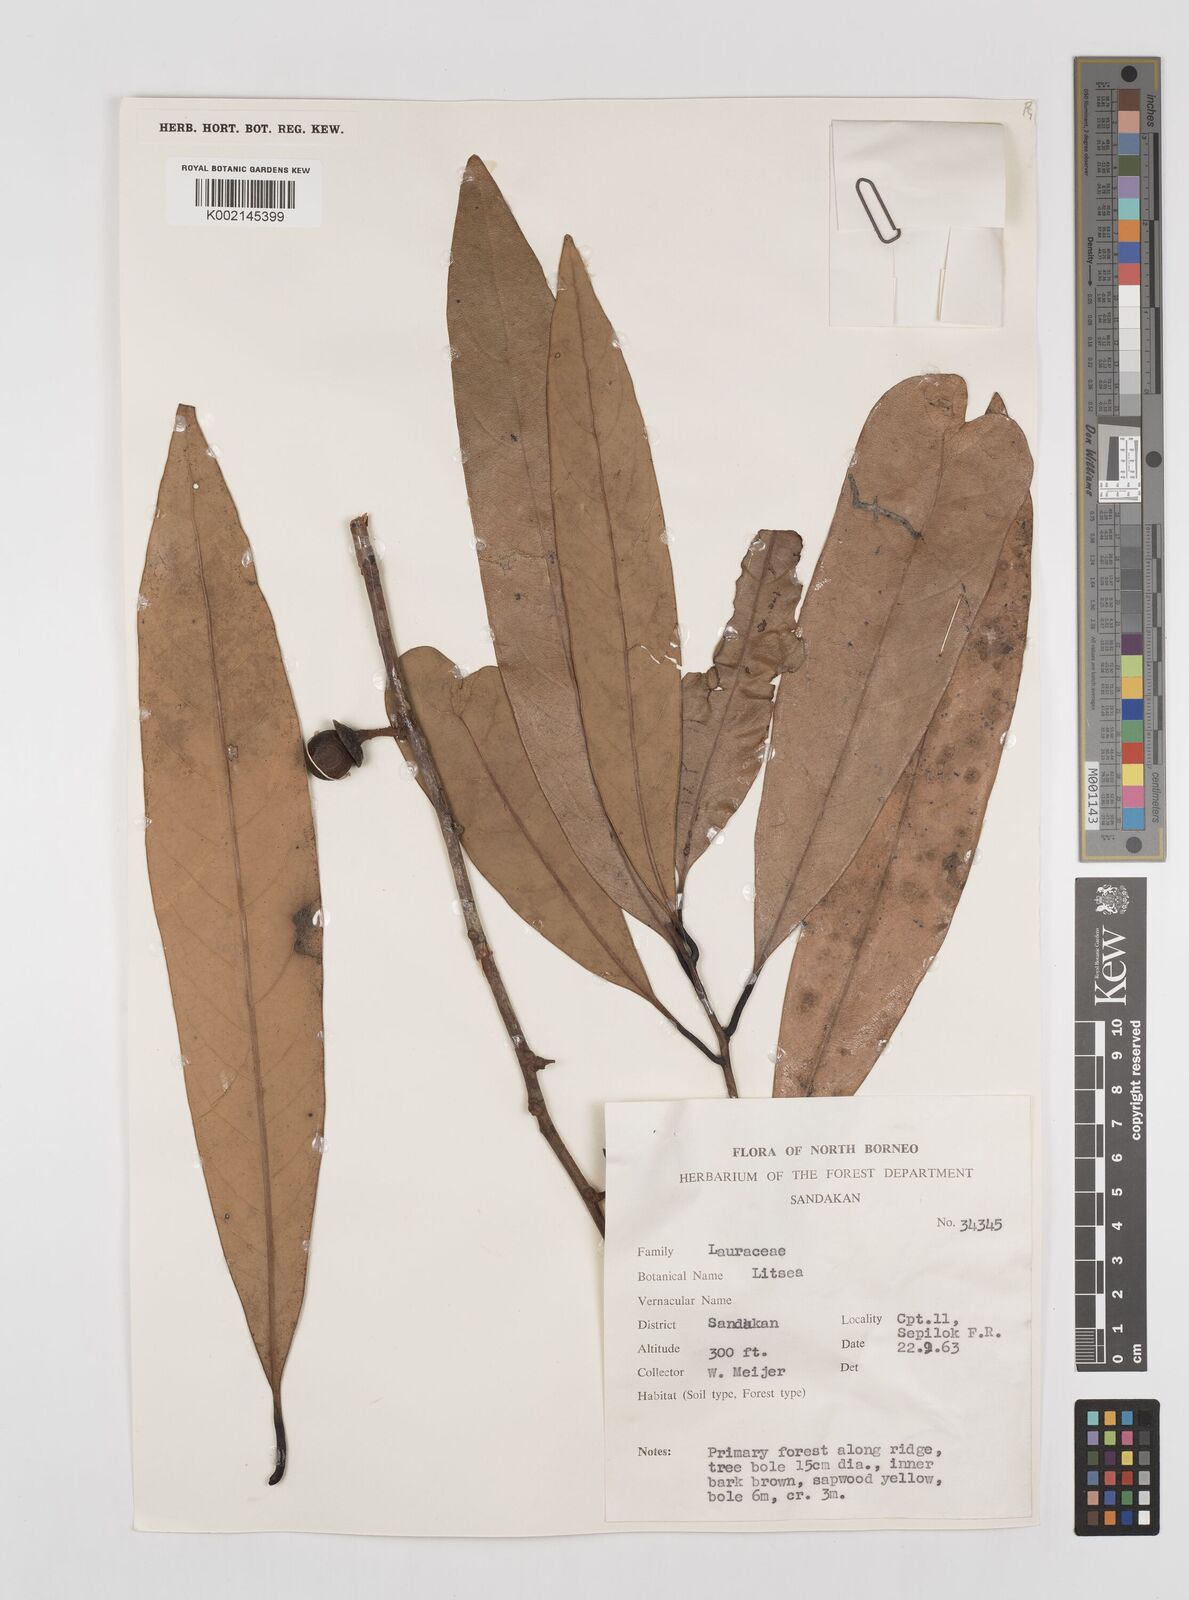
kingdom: Plantae
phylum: Tracheophyta
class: Magnoliopsida
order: Laurales
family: Lauraceae
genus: Litsea
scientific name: Litsea
